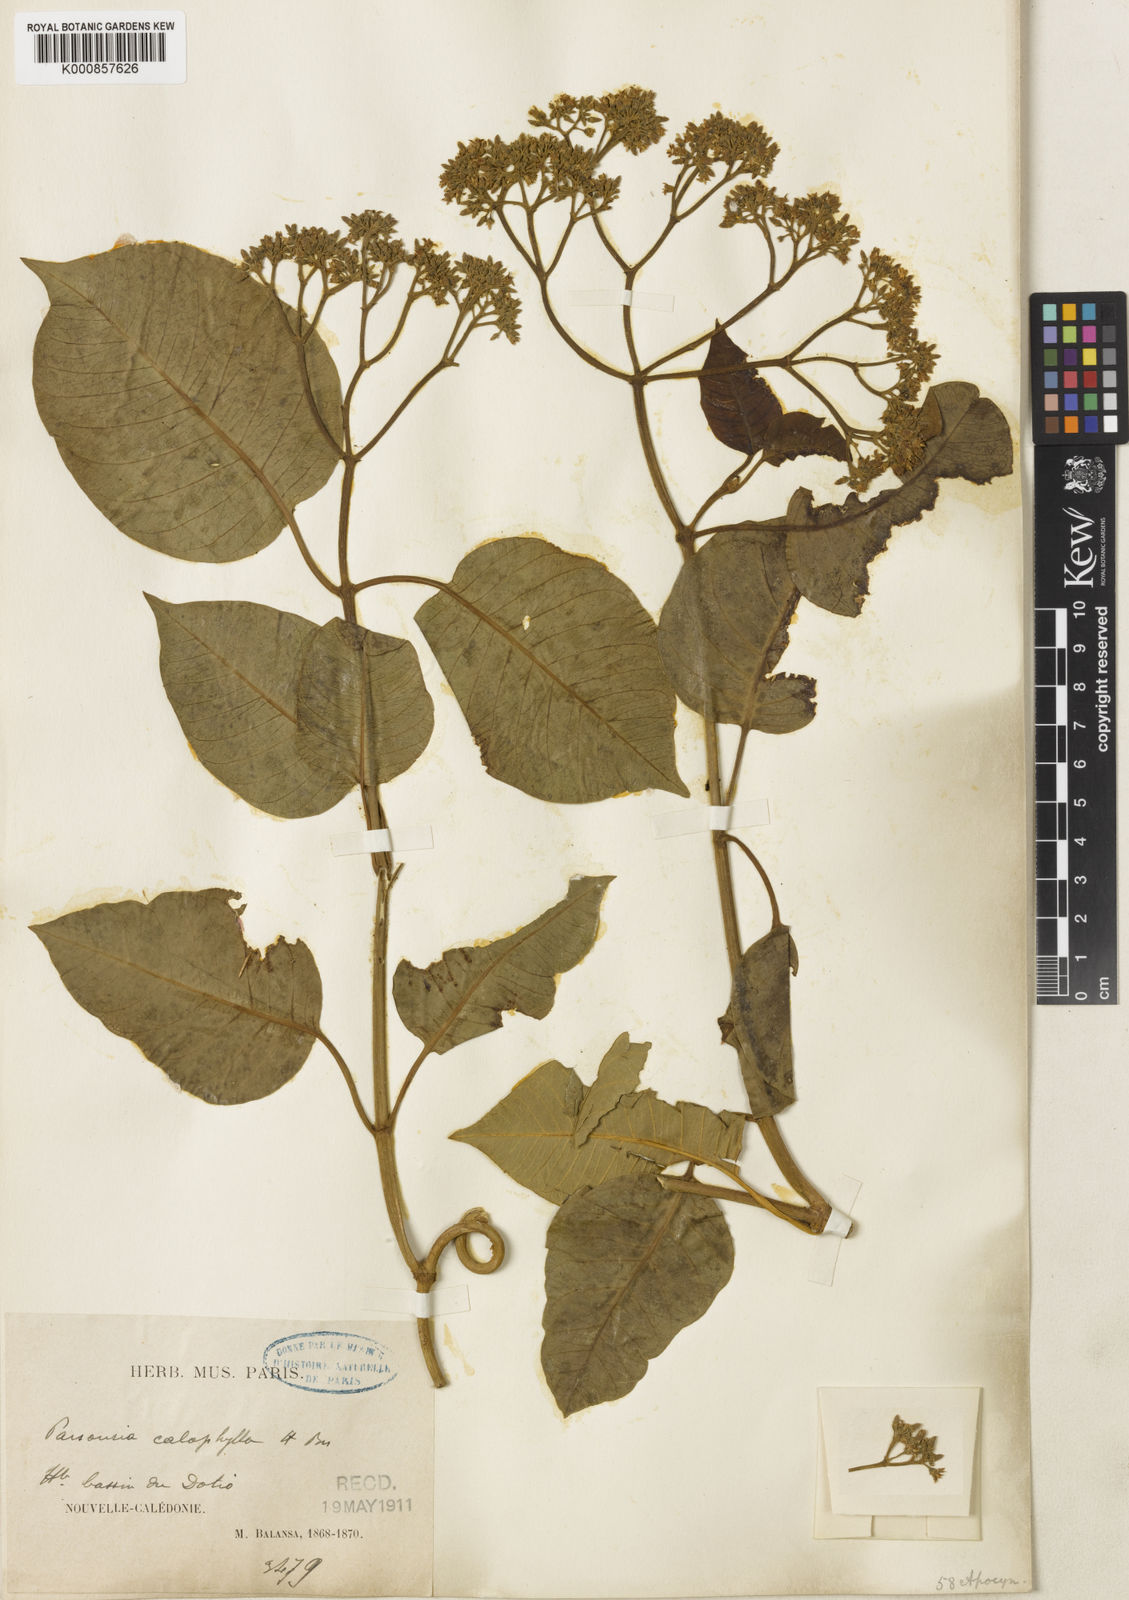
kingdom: Plantae
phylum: Tracheophyta
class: Magnoliopsida
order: Gentianales
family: Apocynaceae
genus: Parsonsia
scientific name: Parsonsia affinis
